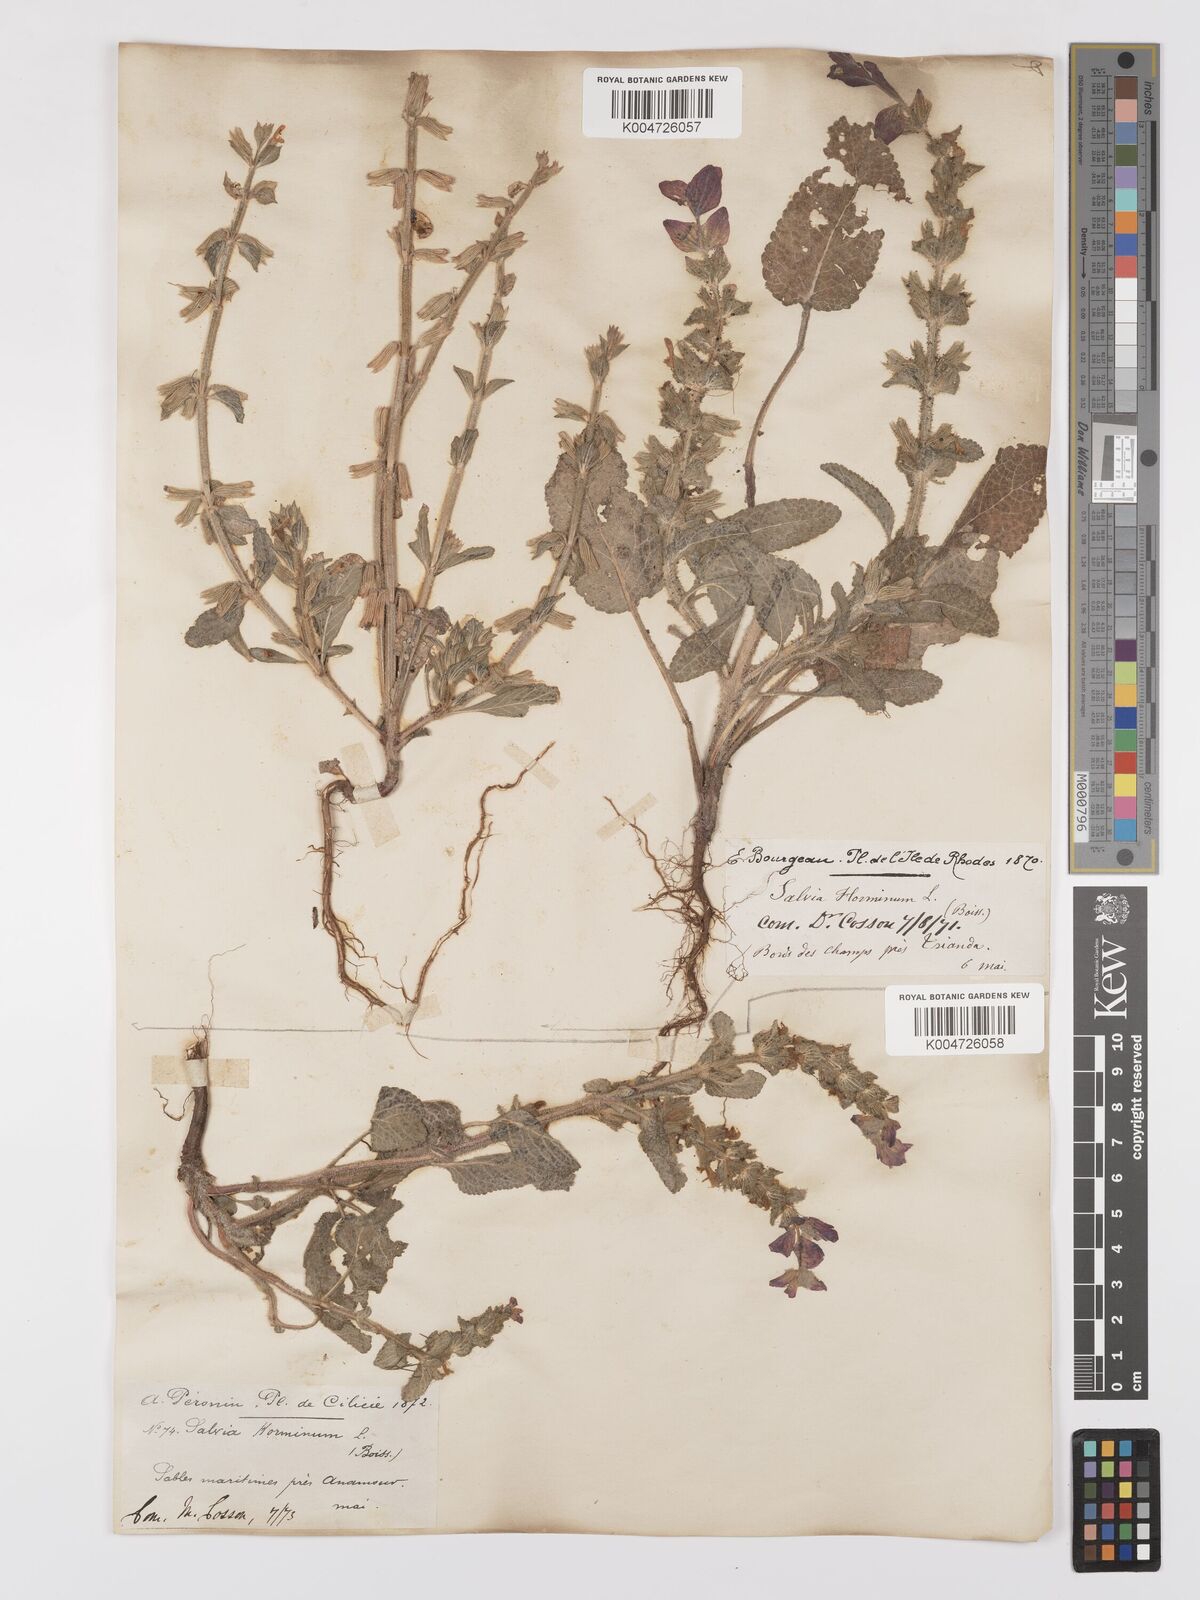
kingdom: Plantae
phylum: Tracheophyta
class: Magnoliopsida
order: Lamiales
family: Lamiaceae
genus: Salvia
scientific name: Salvia viridis
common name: Annual clary
